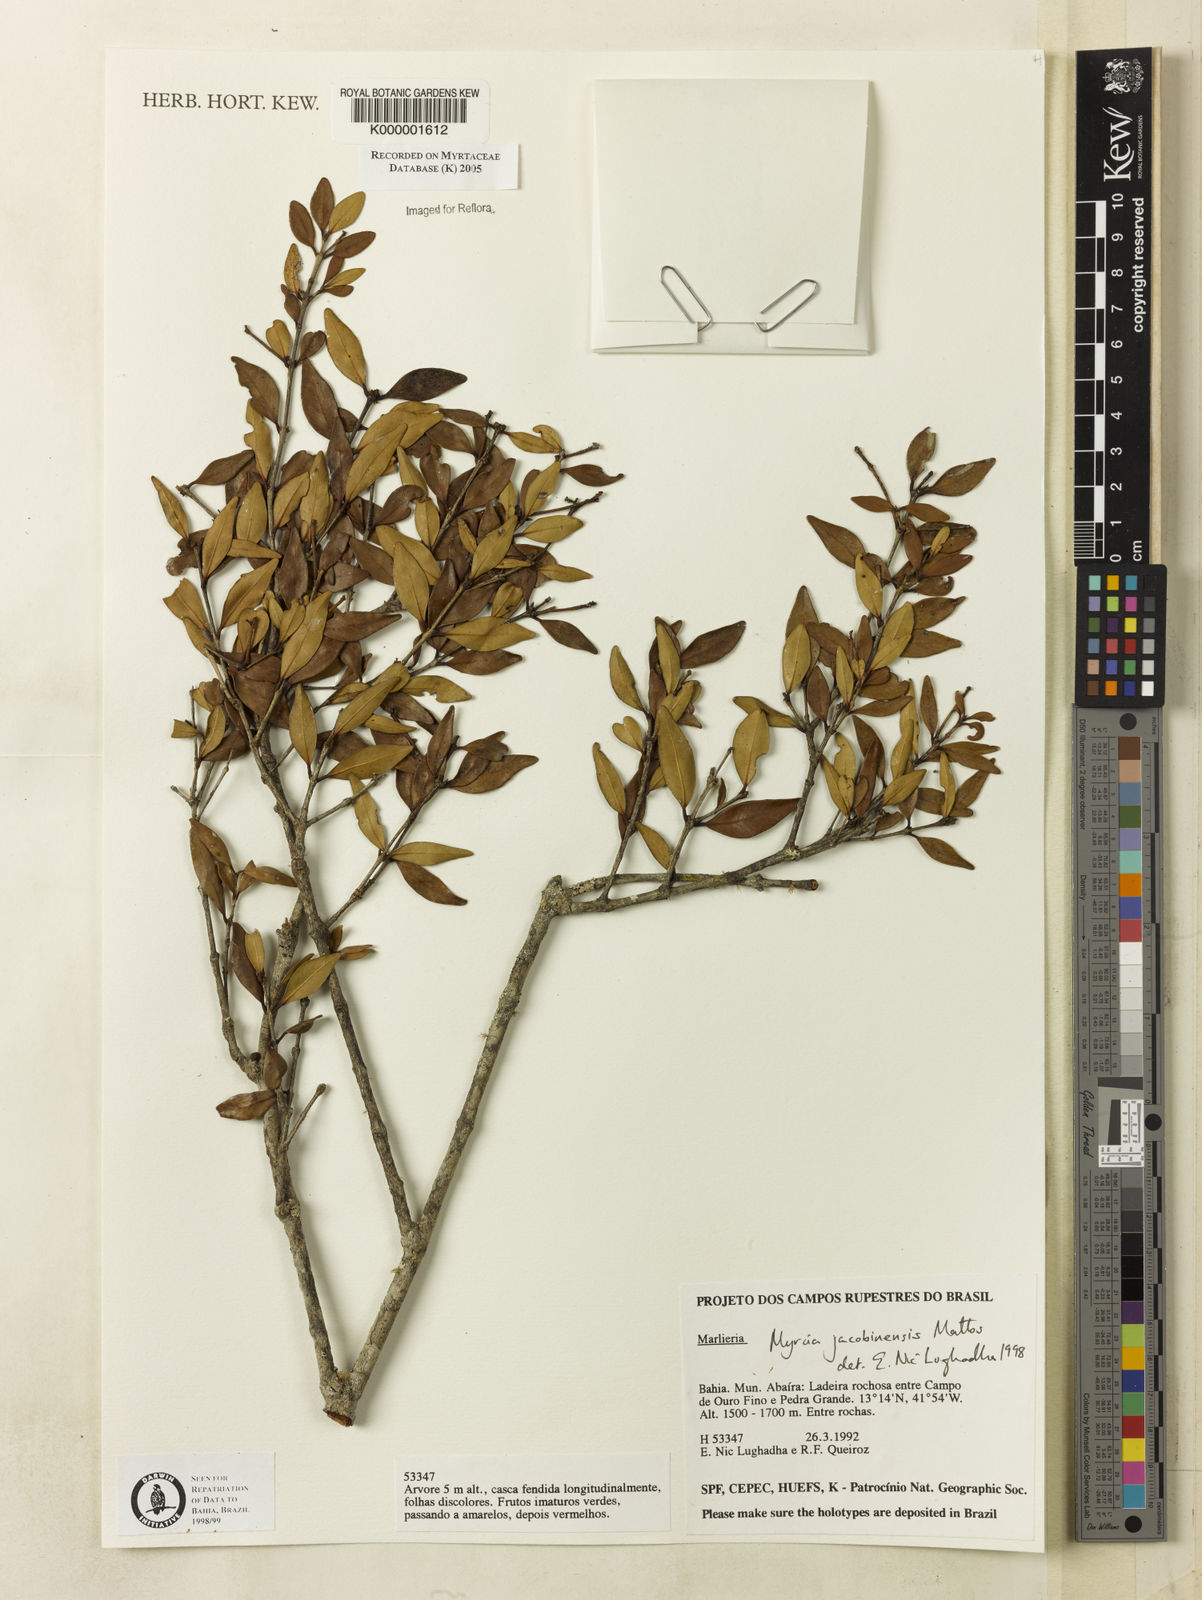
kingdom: Plantae
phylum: Tracheophyta
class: Magnoliopsida
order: Myrtales
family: Myrtaceae
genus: Myrcia
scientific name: Myrcia jacobinensis
